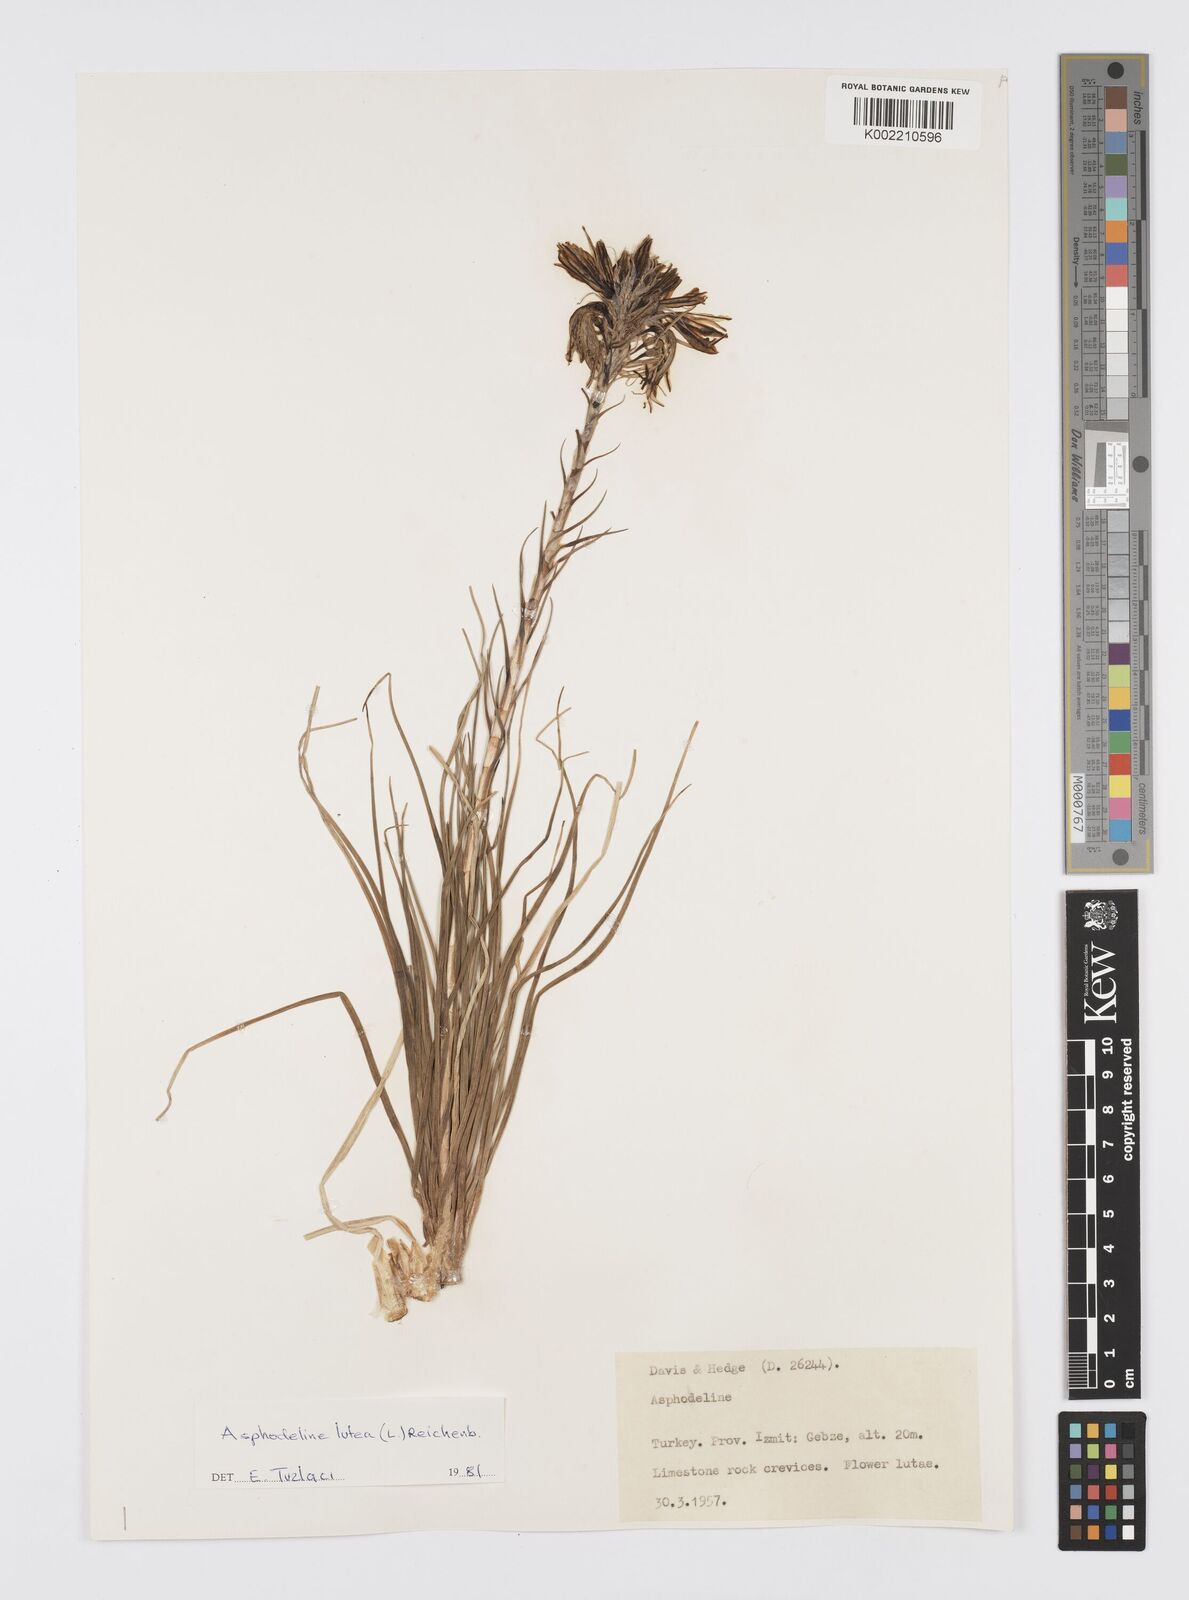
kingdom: Plantae
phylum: Tracheophyta
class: Liliopsida
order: Asparagales
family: Asphodelaceae
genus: Asphodeline
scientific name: Asphodeline lutea
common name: Yellow asphodel
